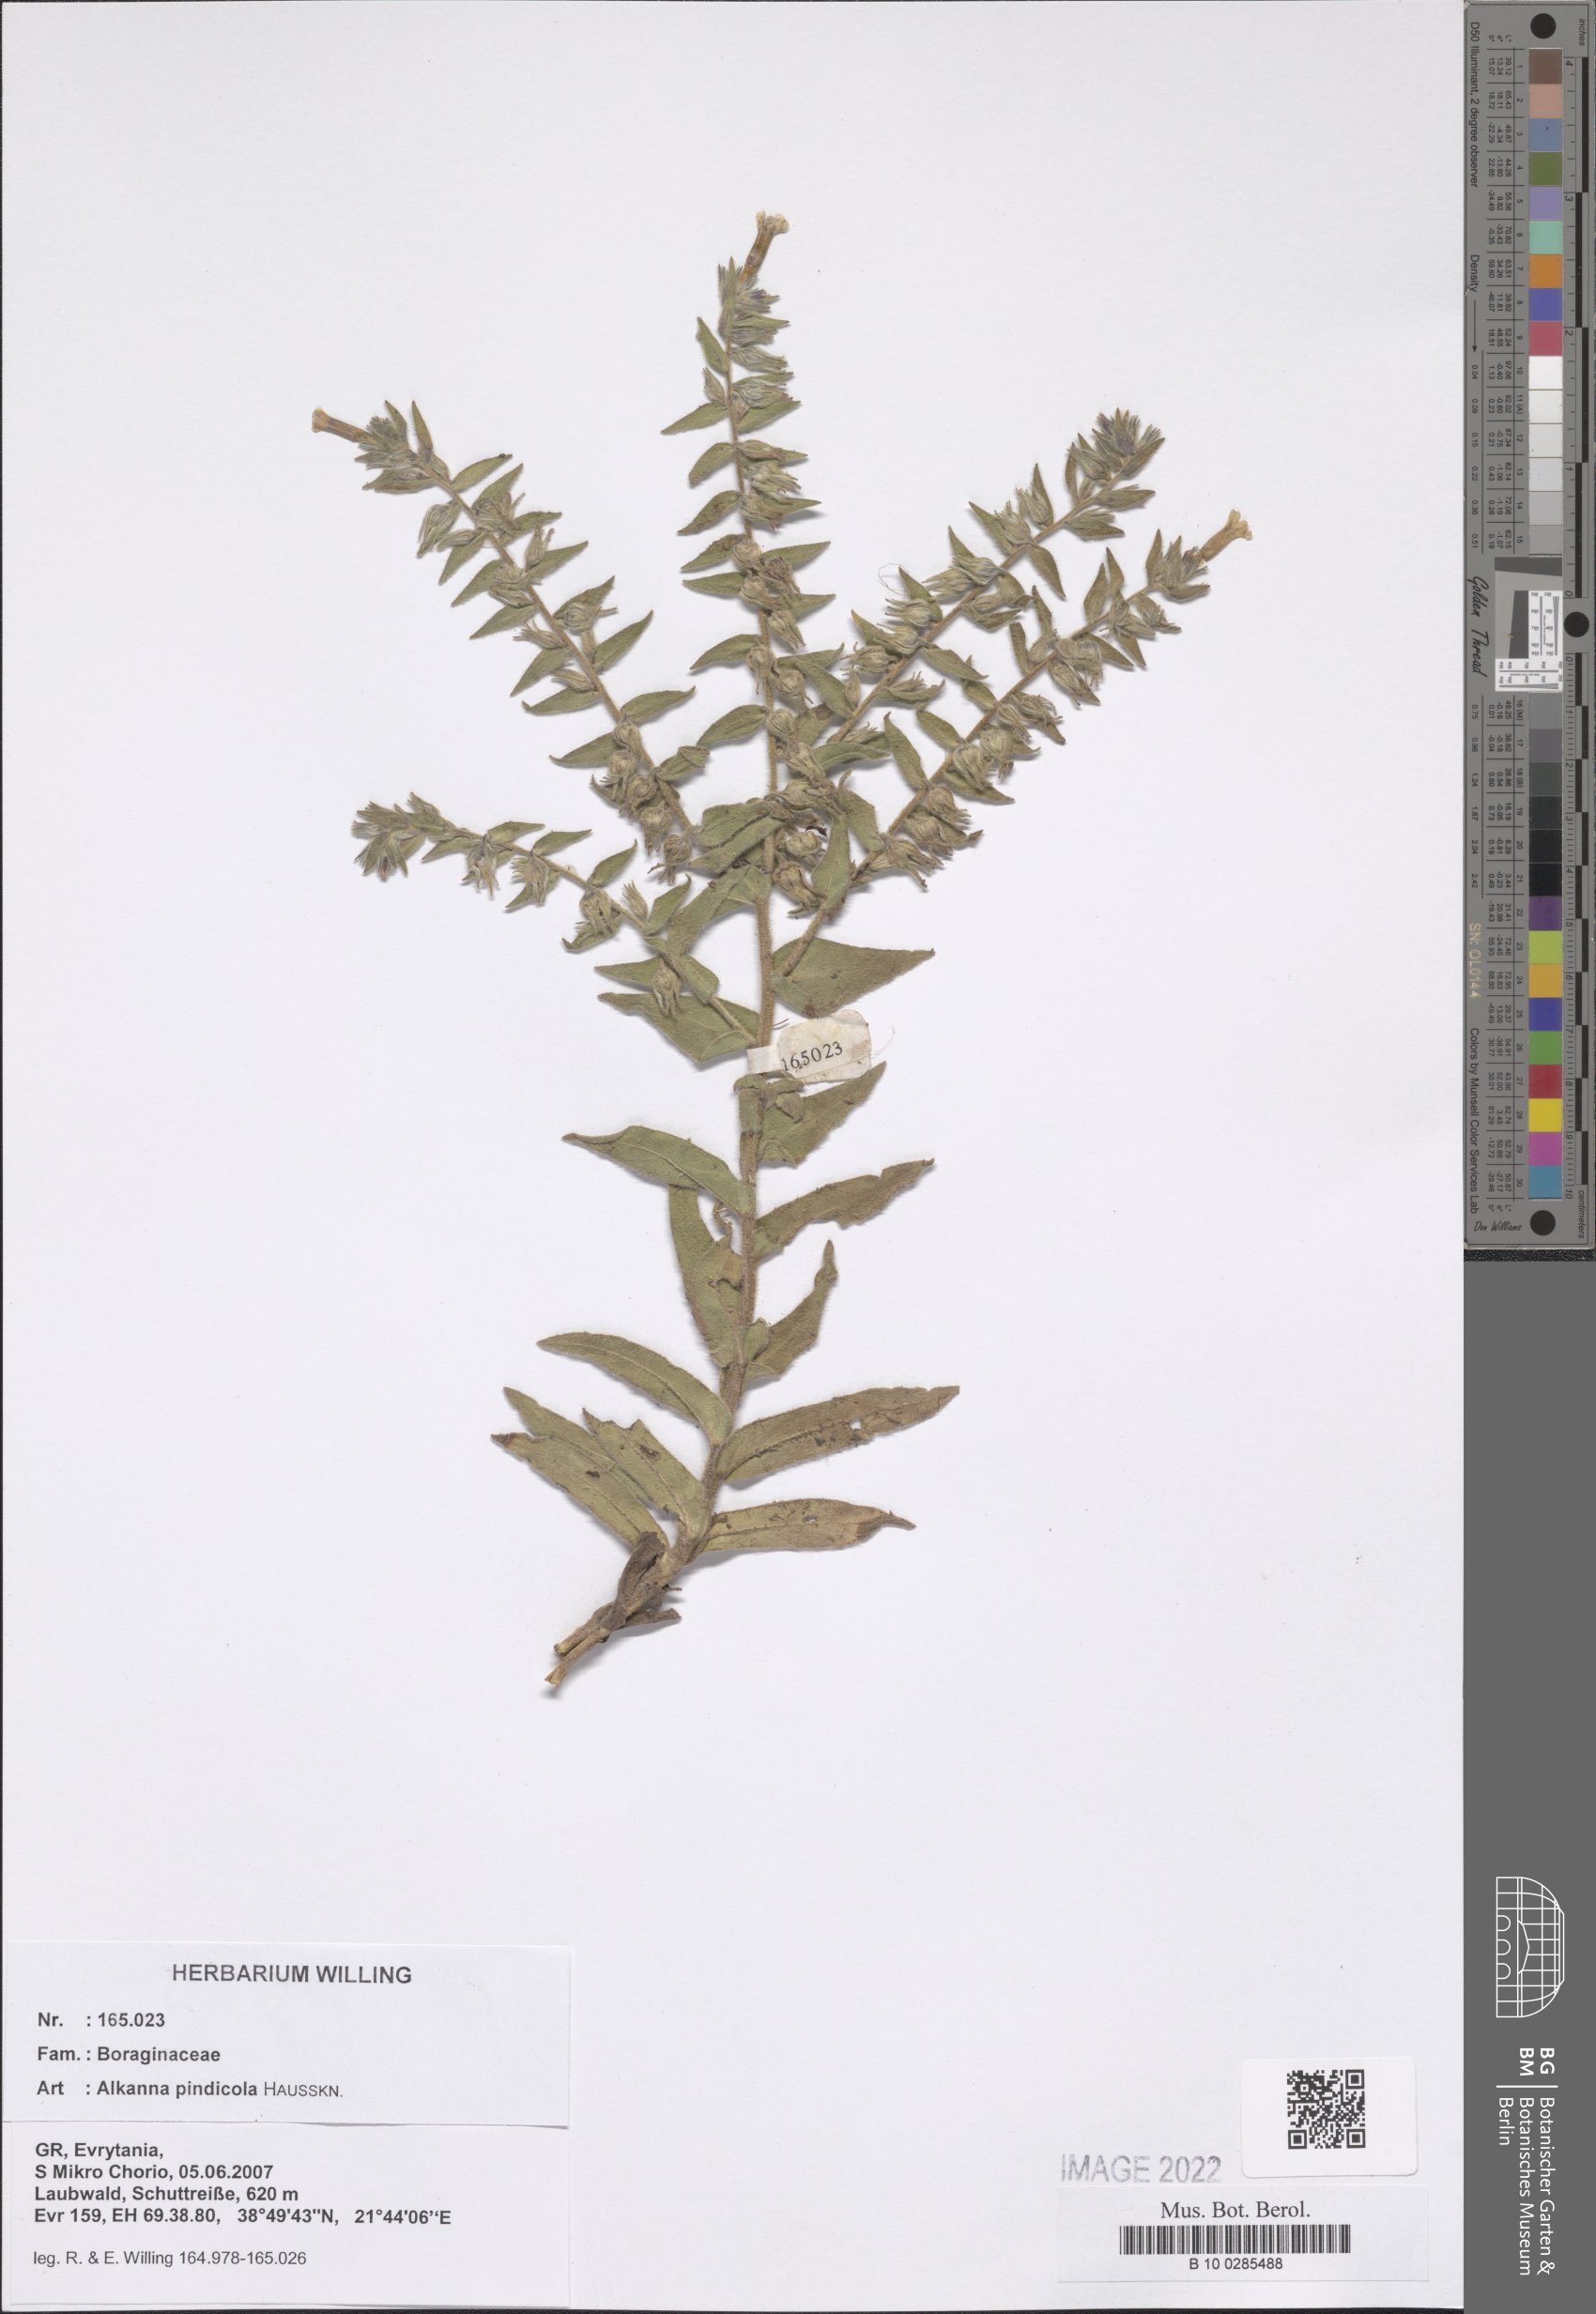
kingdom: Plantae
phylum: Tracheophyta
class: Magnoliopsida
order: Boraginales
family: Boraginaceae
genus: Alkanna
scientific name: Alkanna pindicola
